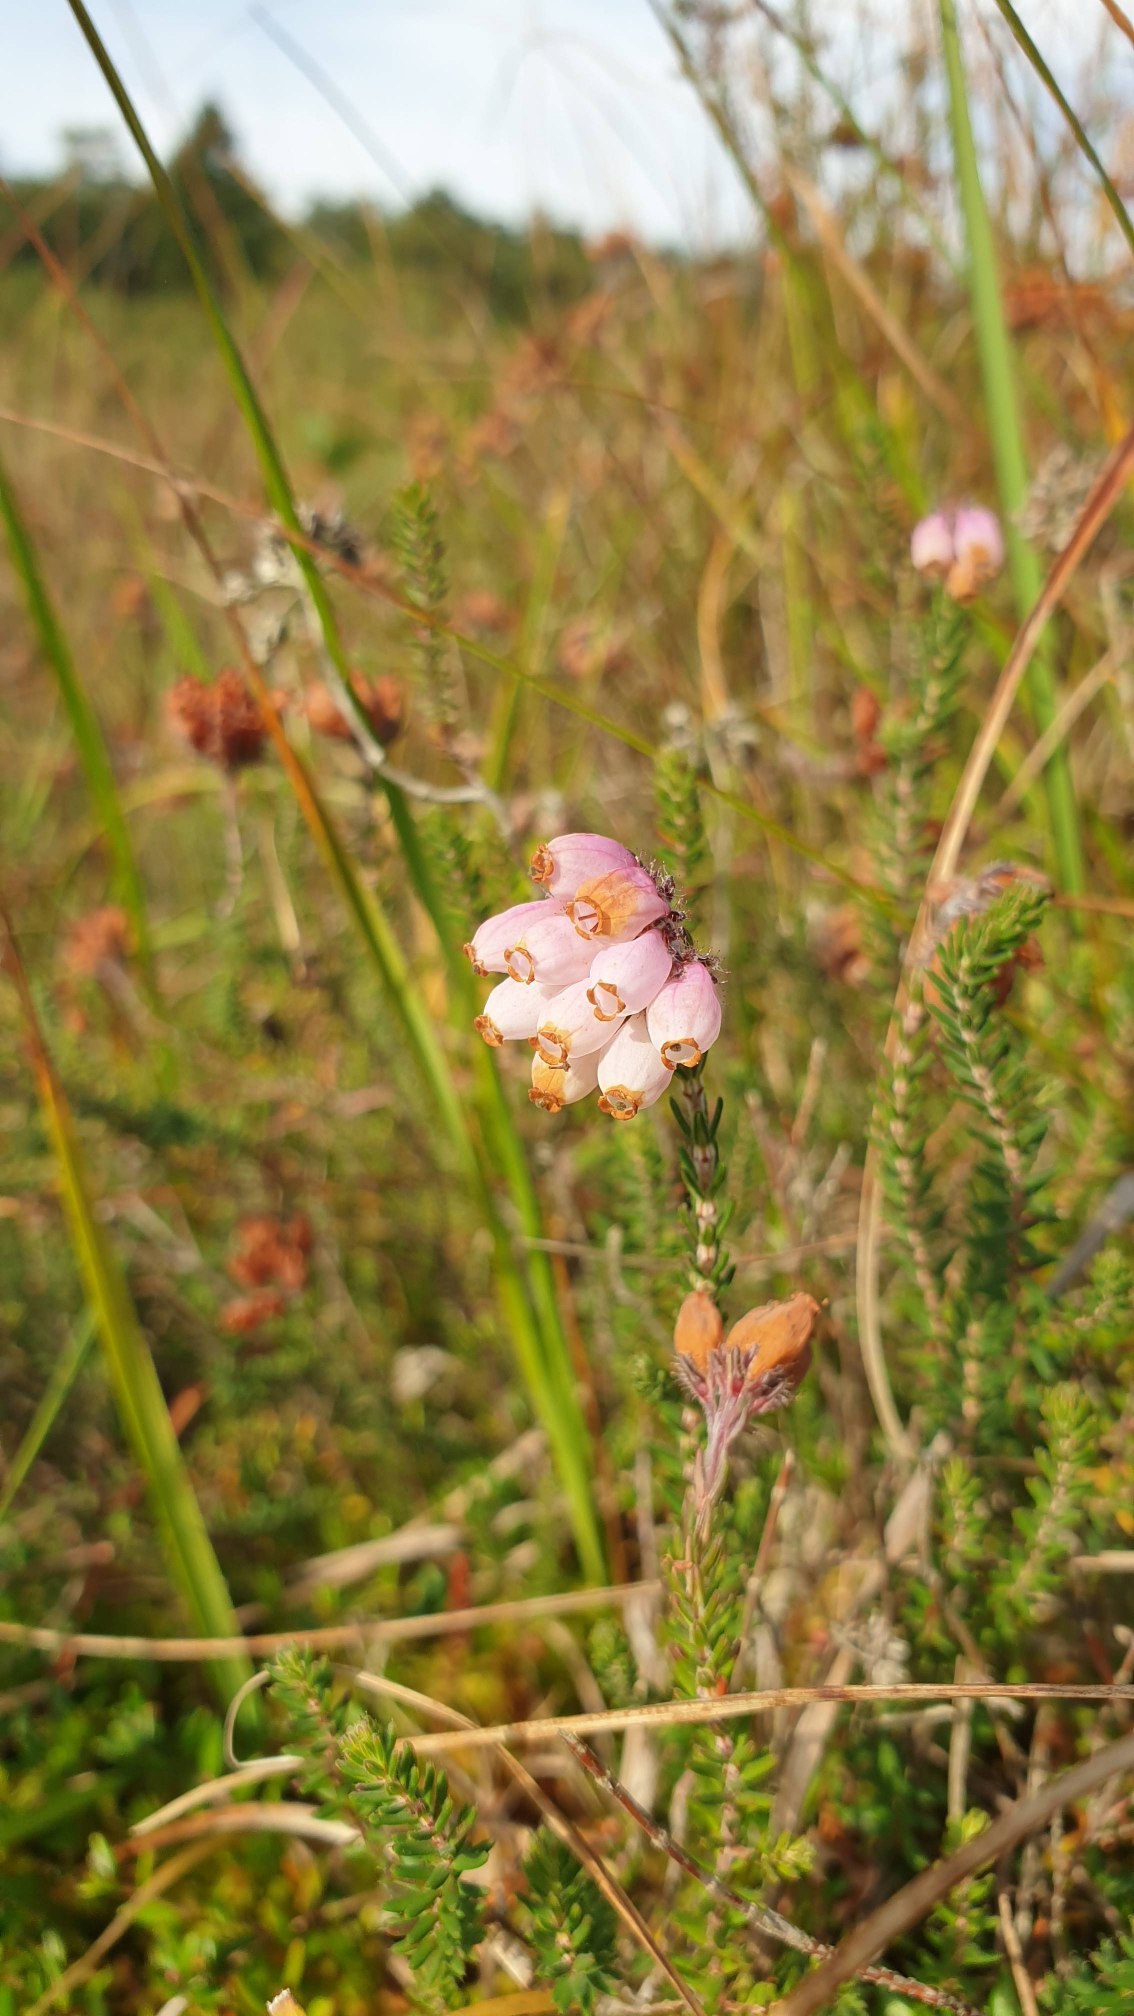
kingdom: Plantae
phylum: Tracheophyta
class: Magnoliopsida
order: Ericales
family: Ericaceae
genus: Erica
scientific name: Erica tetralix
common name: Klokkelyng
